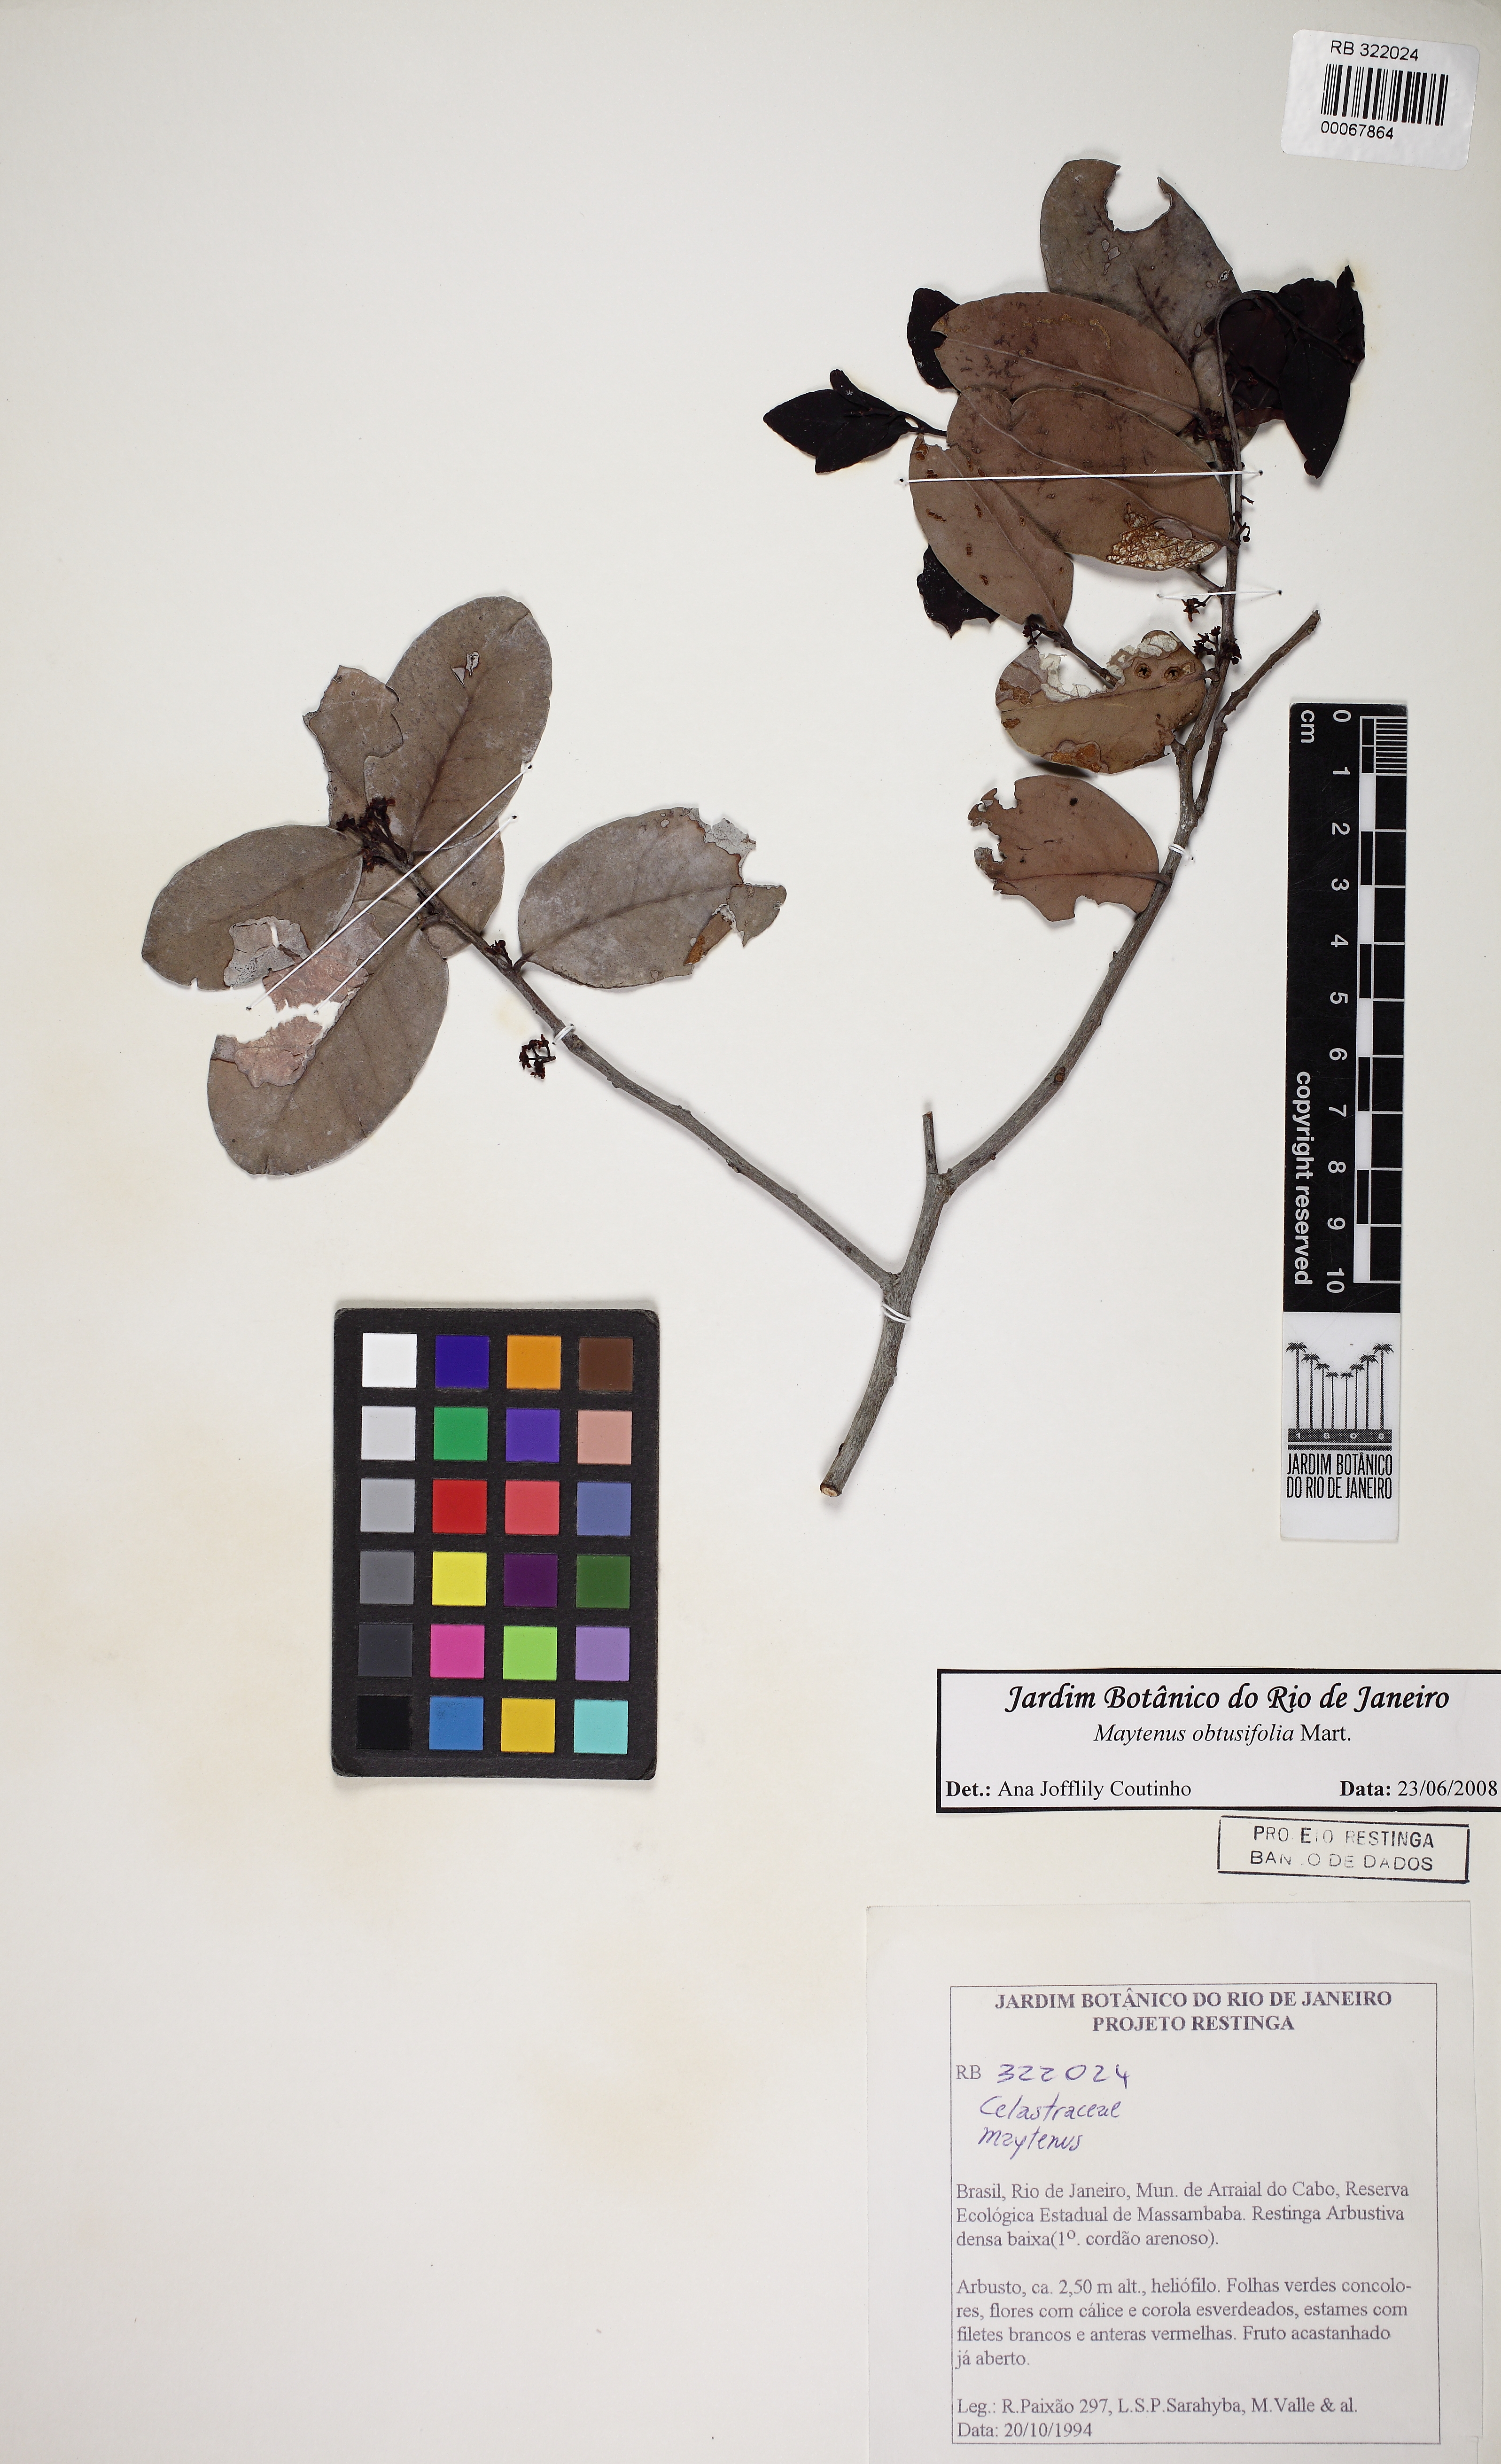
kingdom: Plantae
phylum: Tracheophyta
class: Magnoliopsida
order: Celastrales
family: Celastraceae
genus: Monteverdia
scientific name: Monteverdia obtusifolia
